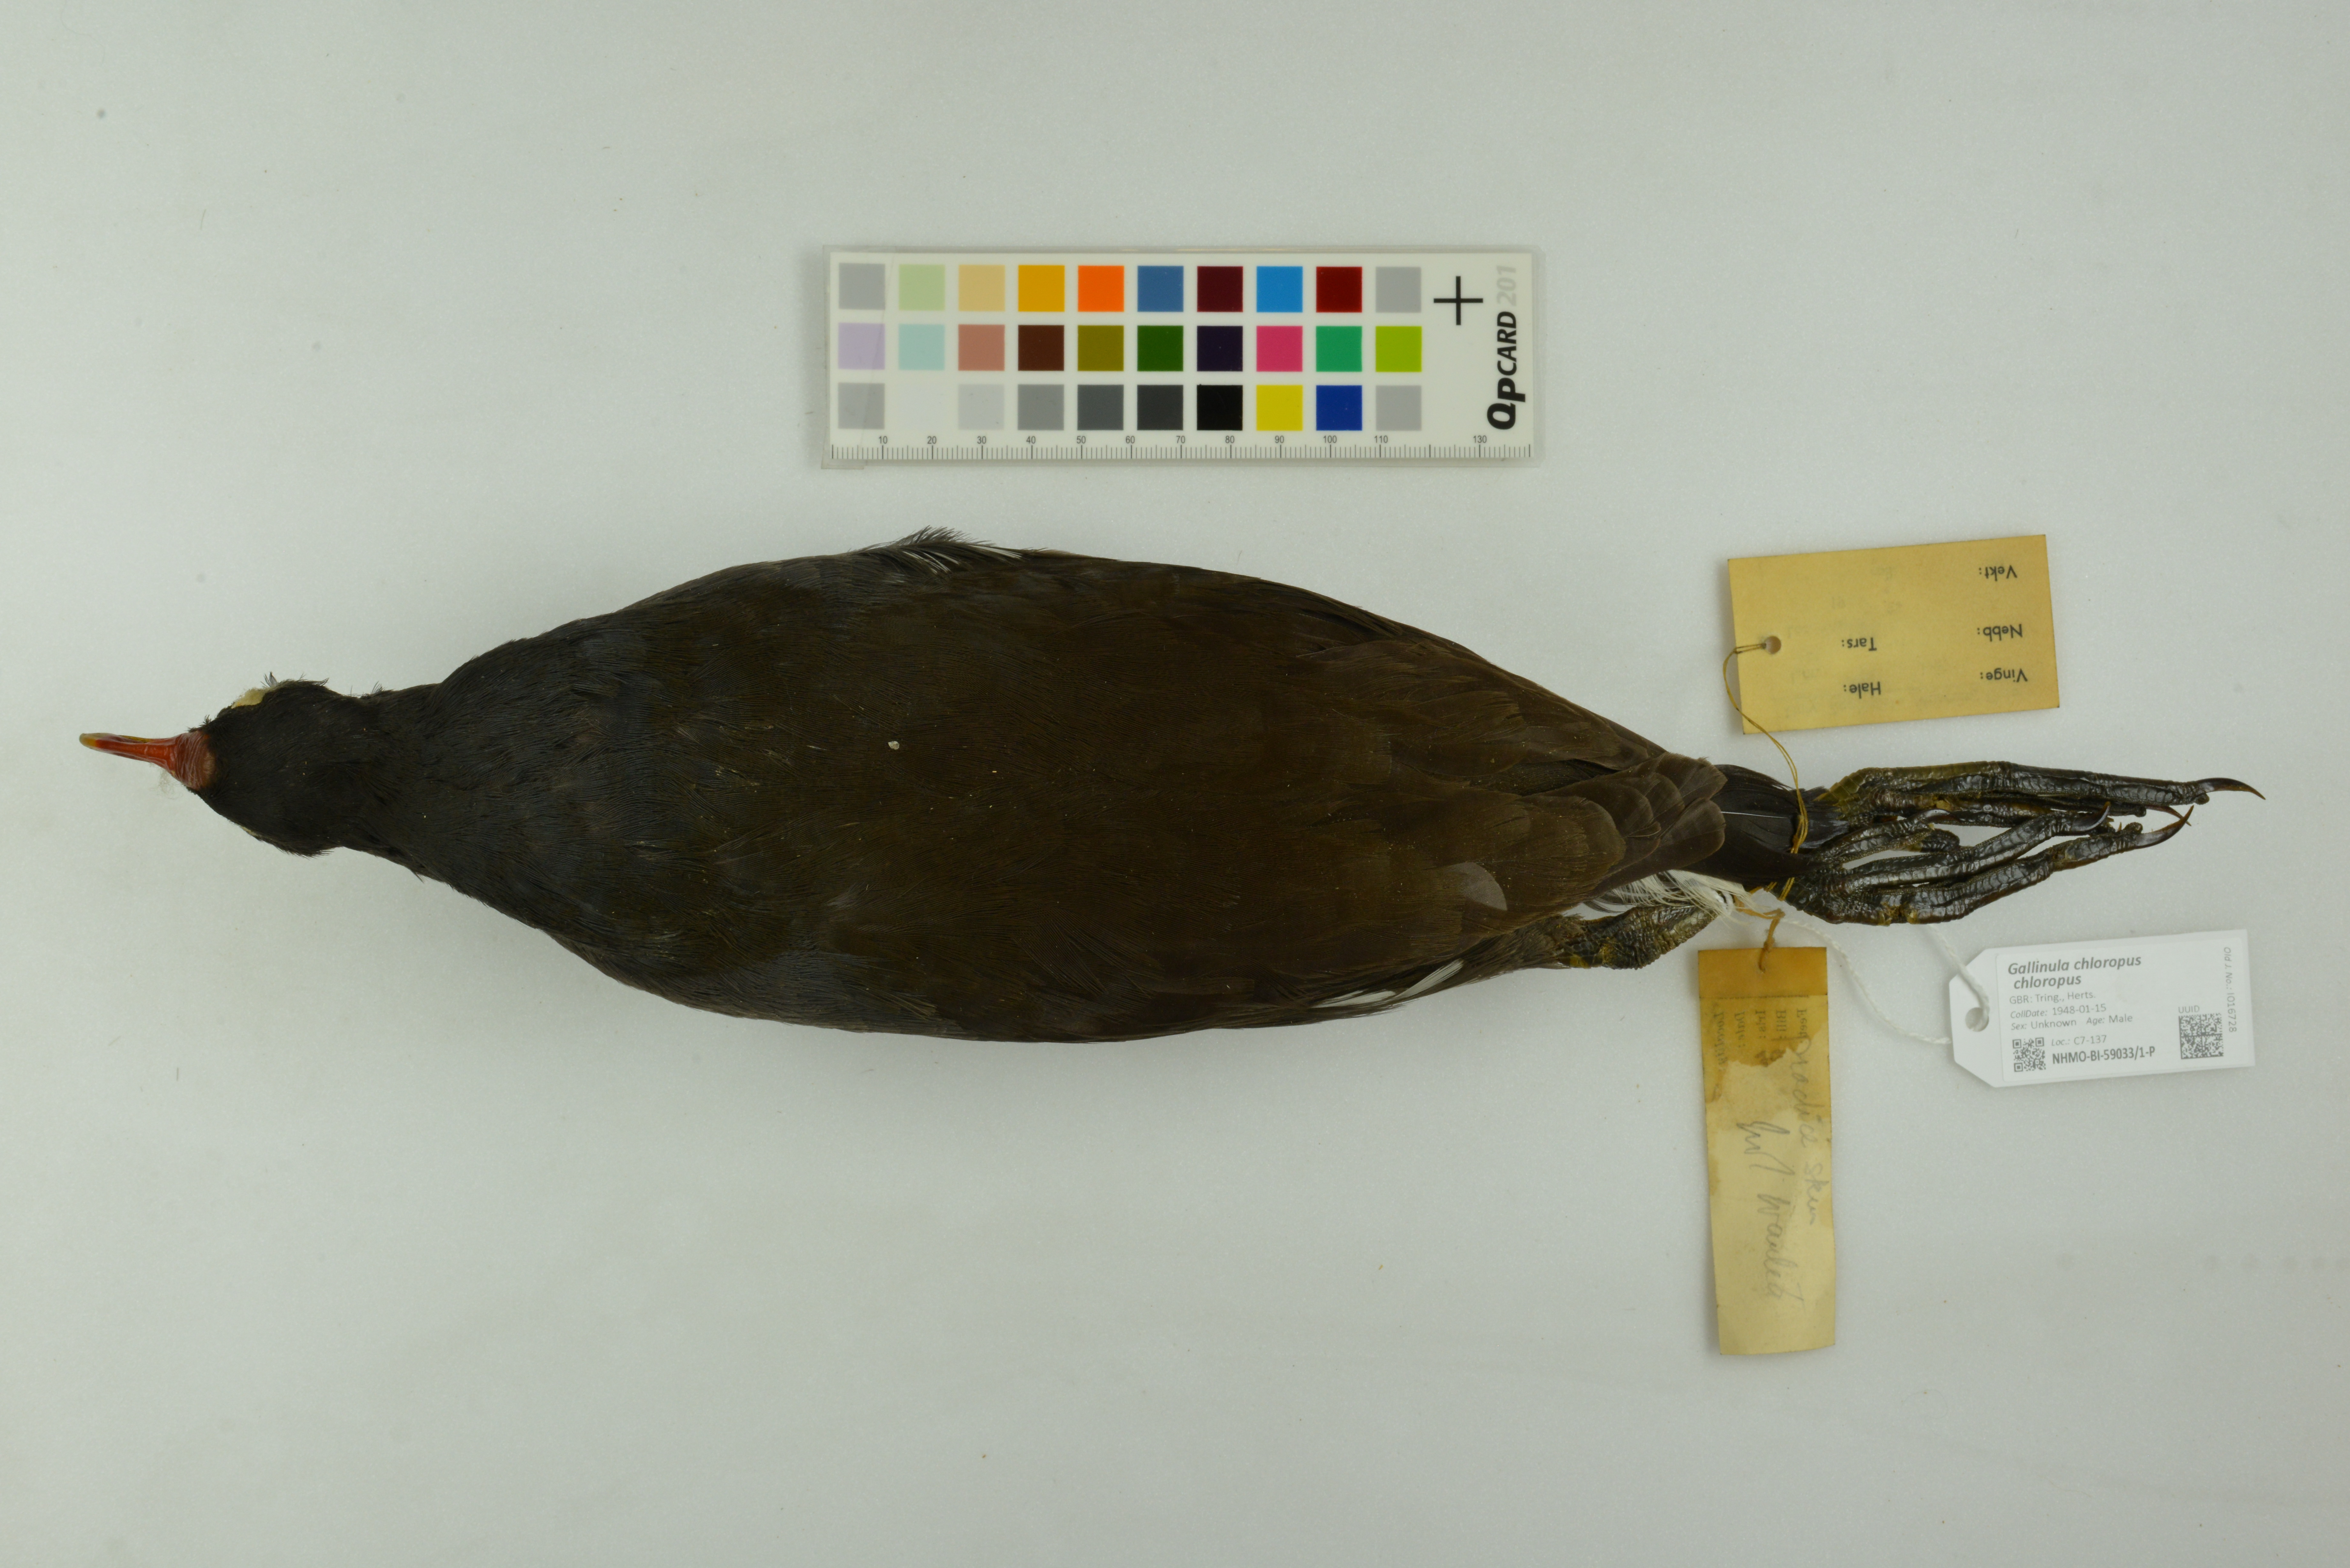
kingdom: Animalia
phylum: Chordata
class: Aves
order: Gruiformes
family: Rallidae
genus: Gallinula
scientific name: Gallinula chloropus
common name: Common moorhen
